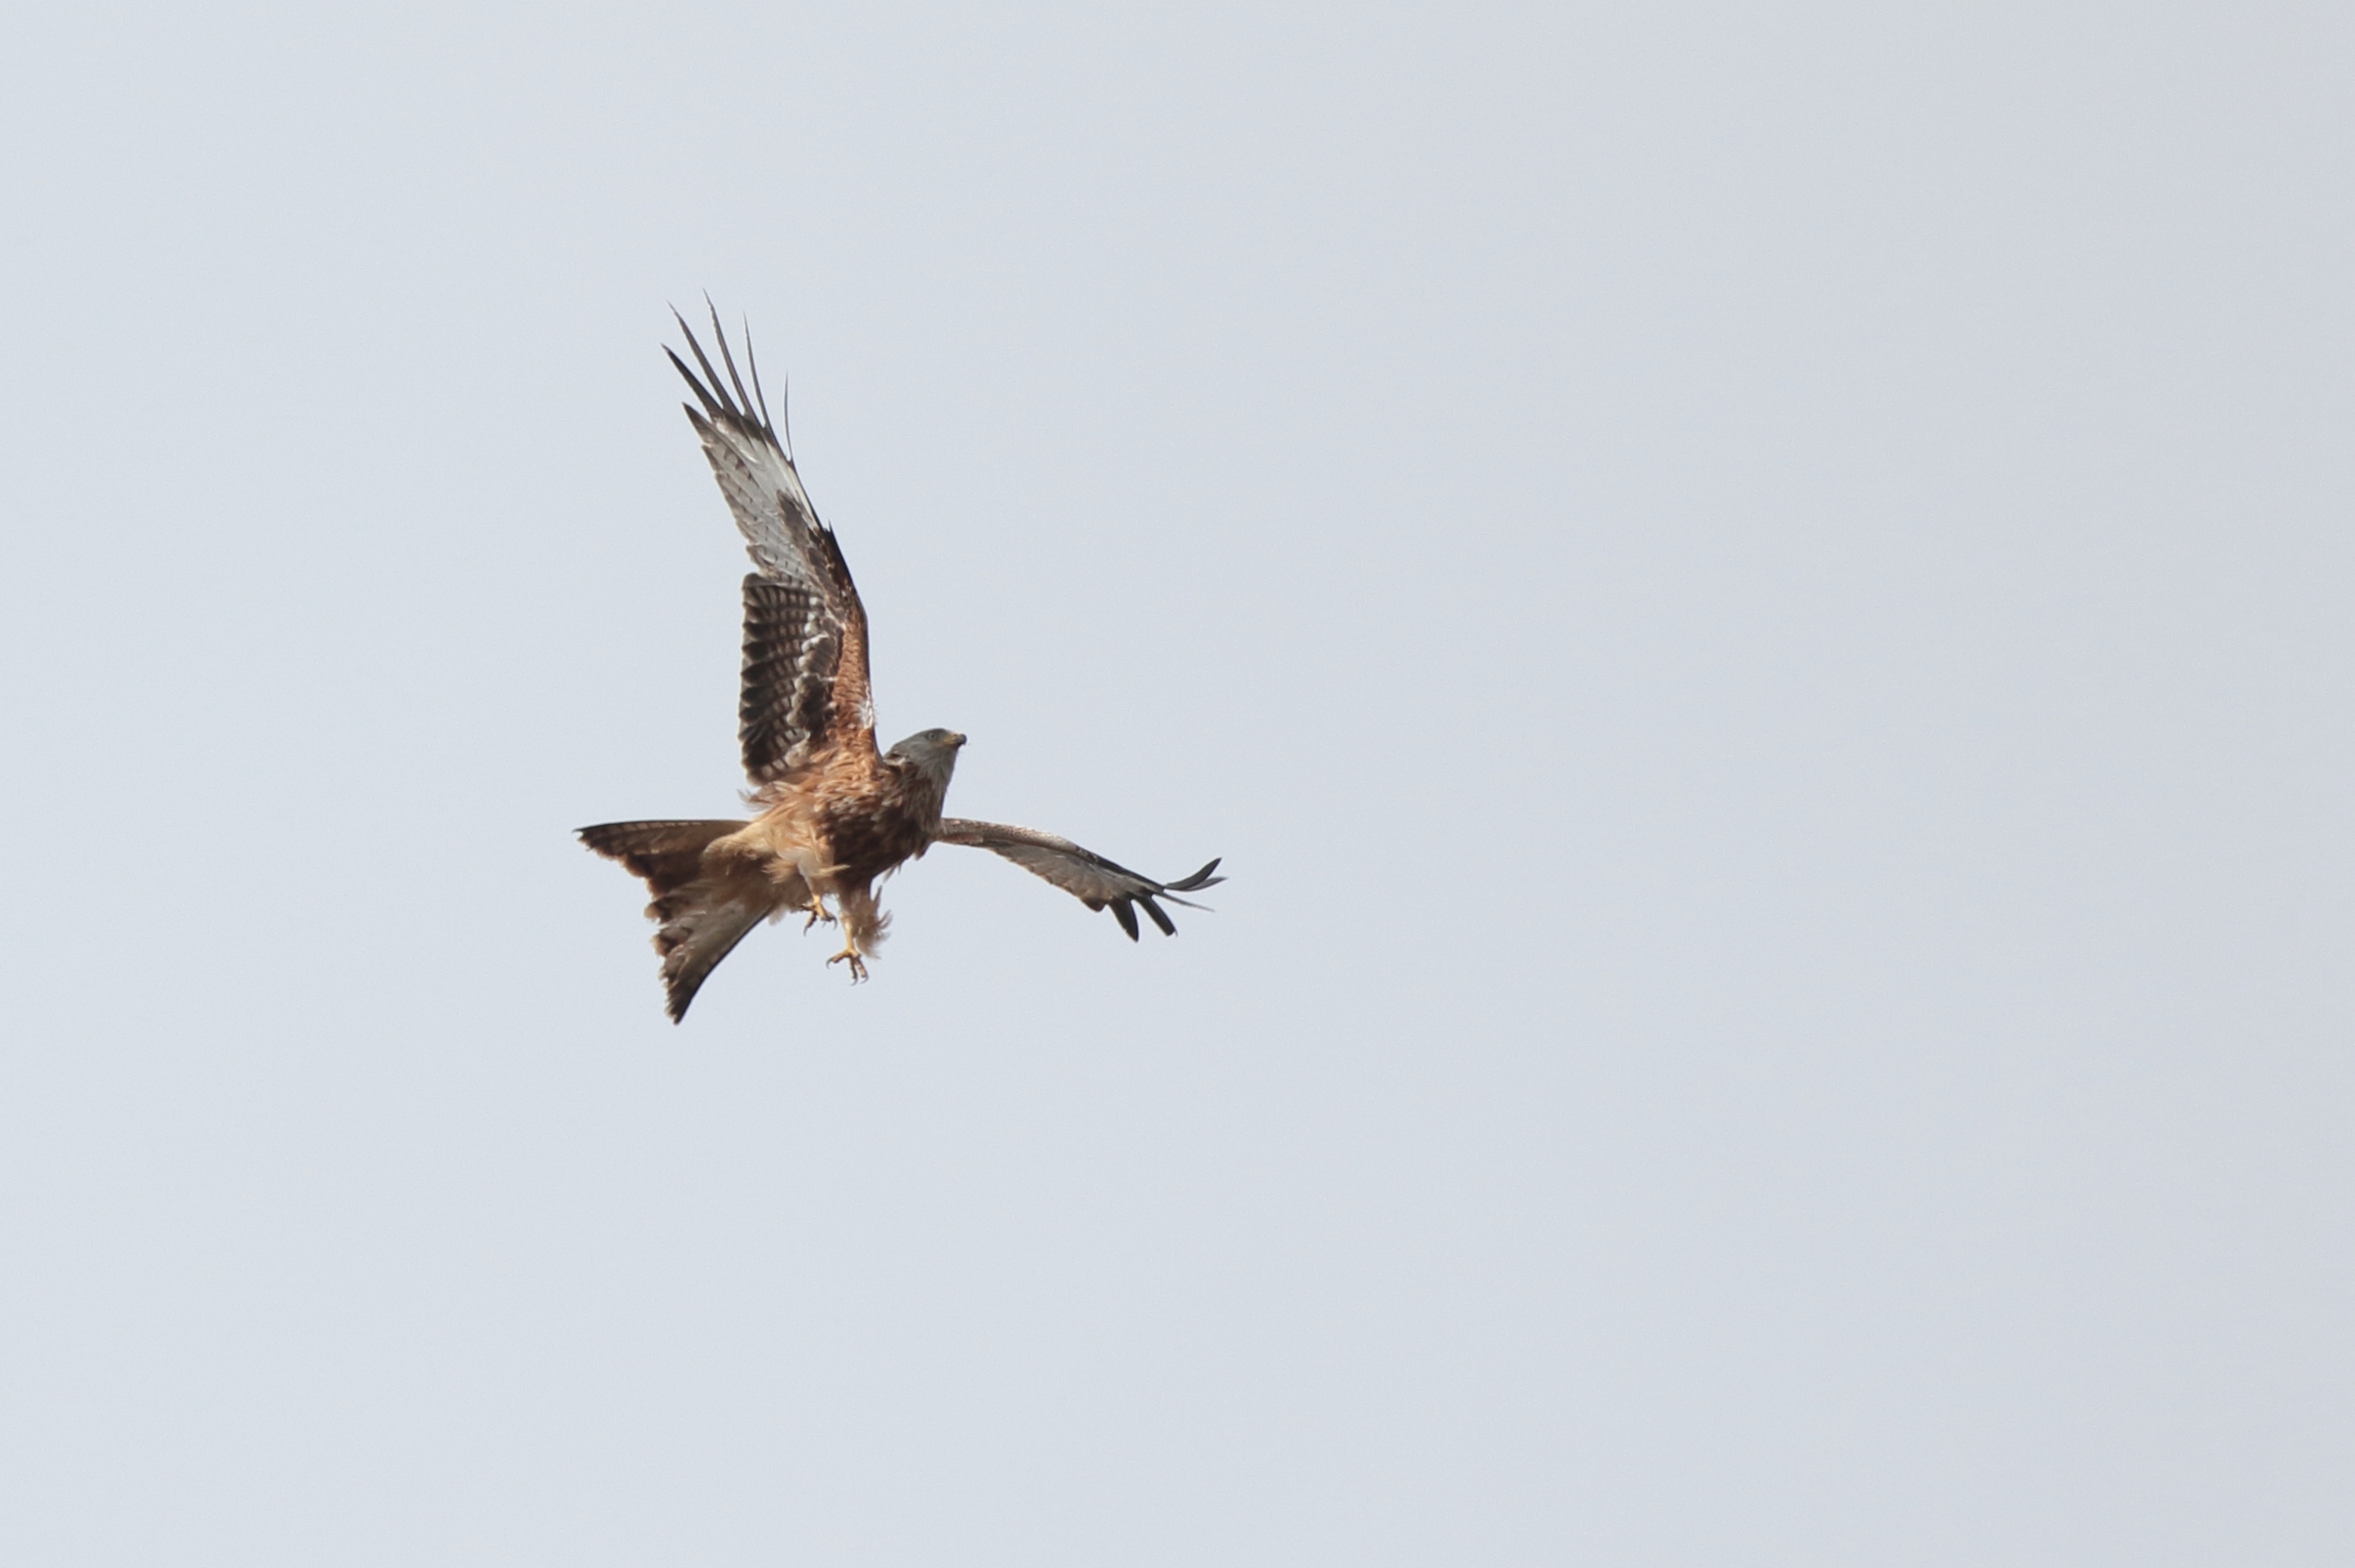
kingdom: Animalia
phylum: Chordata
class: Aves
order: Accipitriformes
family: Accipitridae
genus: Milvus
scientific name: Milvus milvus
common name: Rød glente
